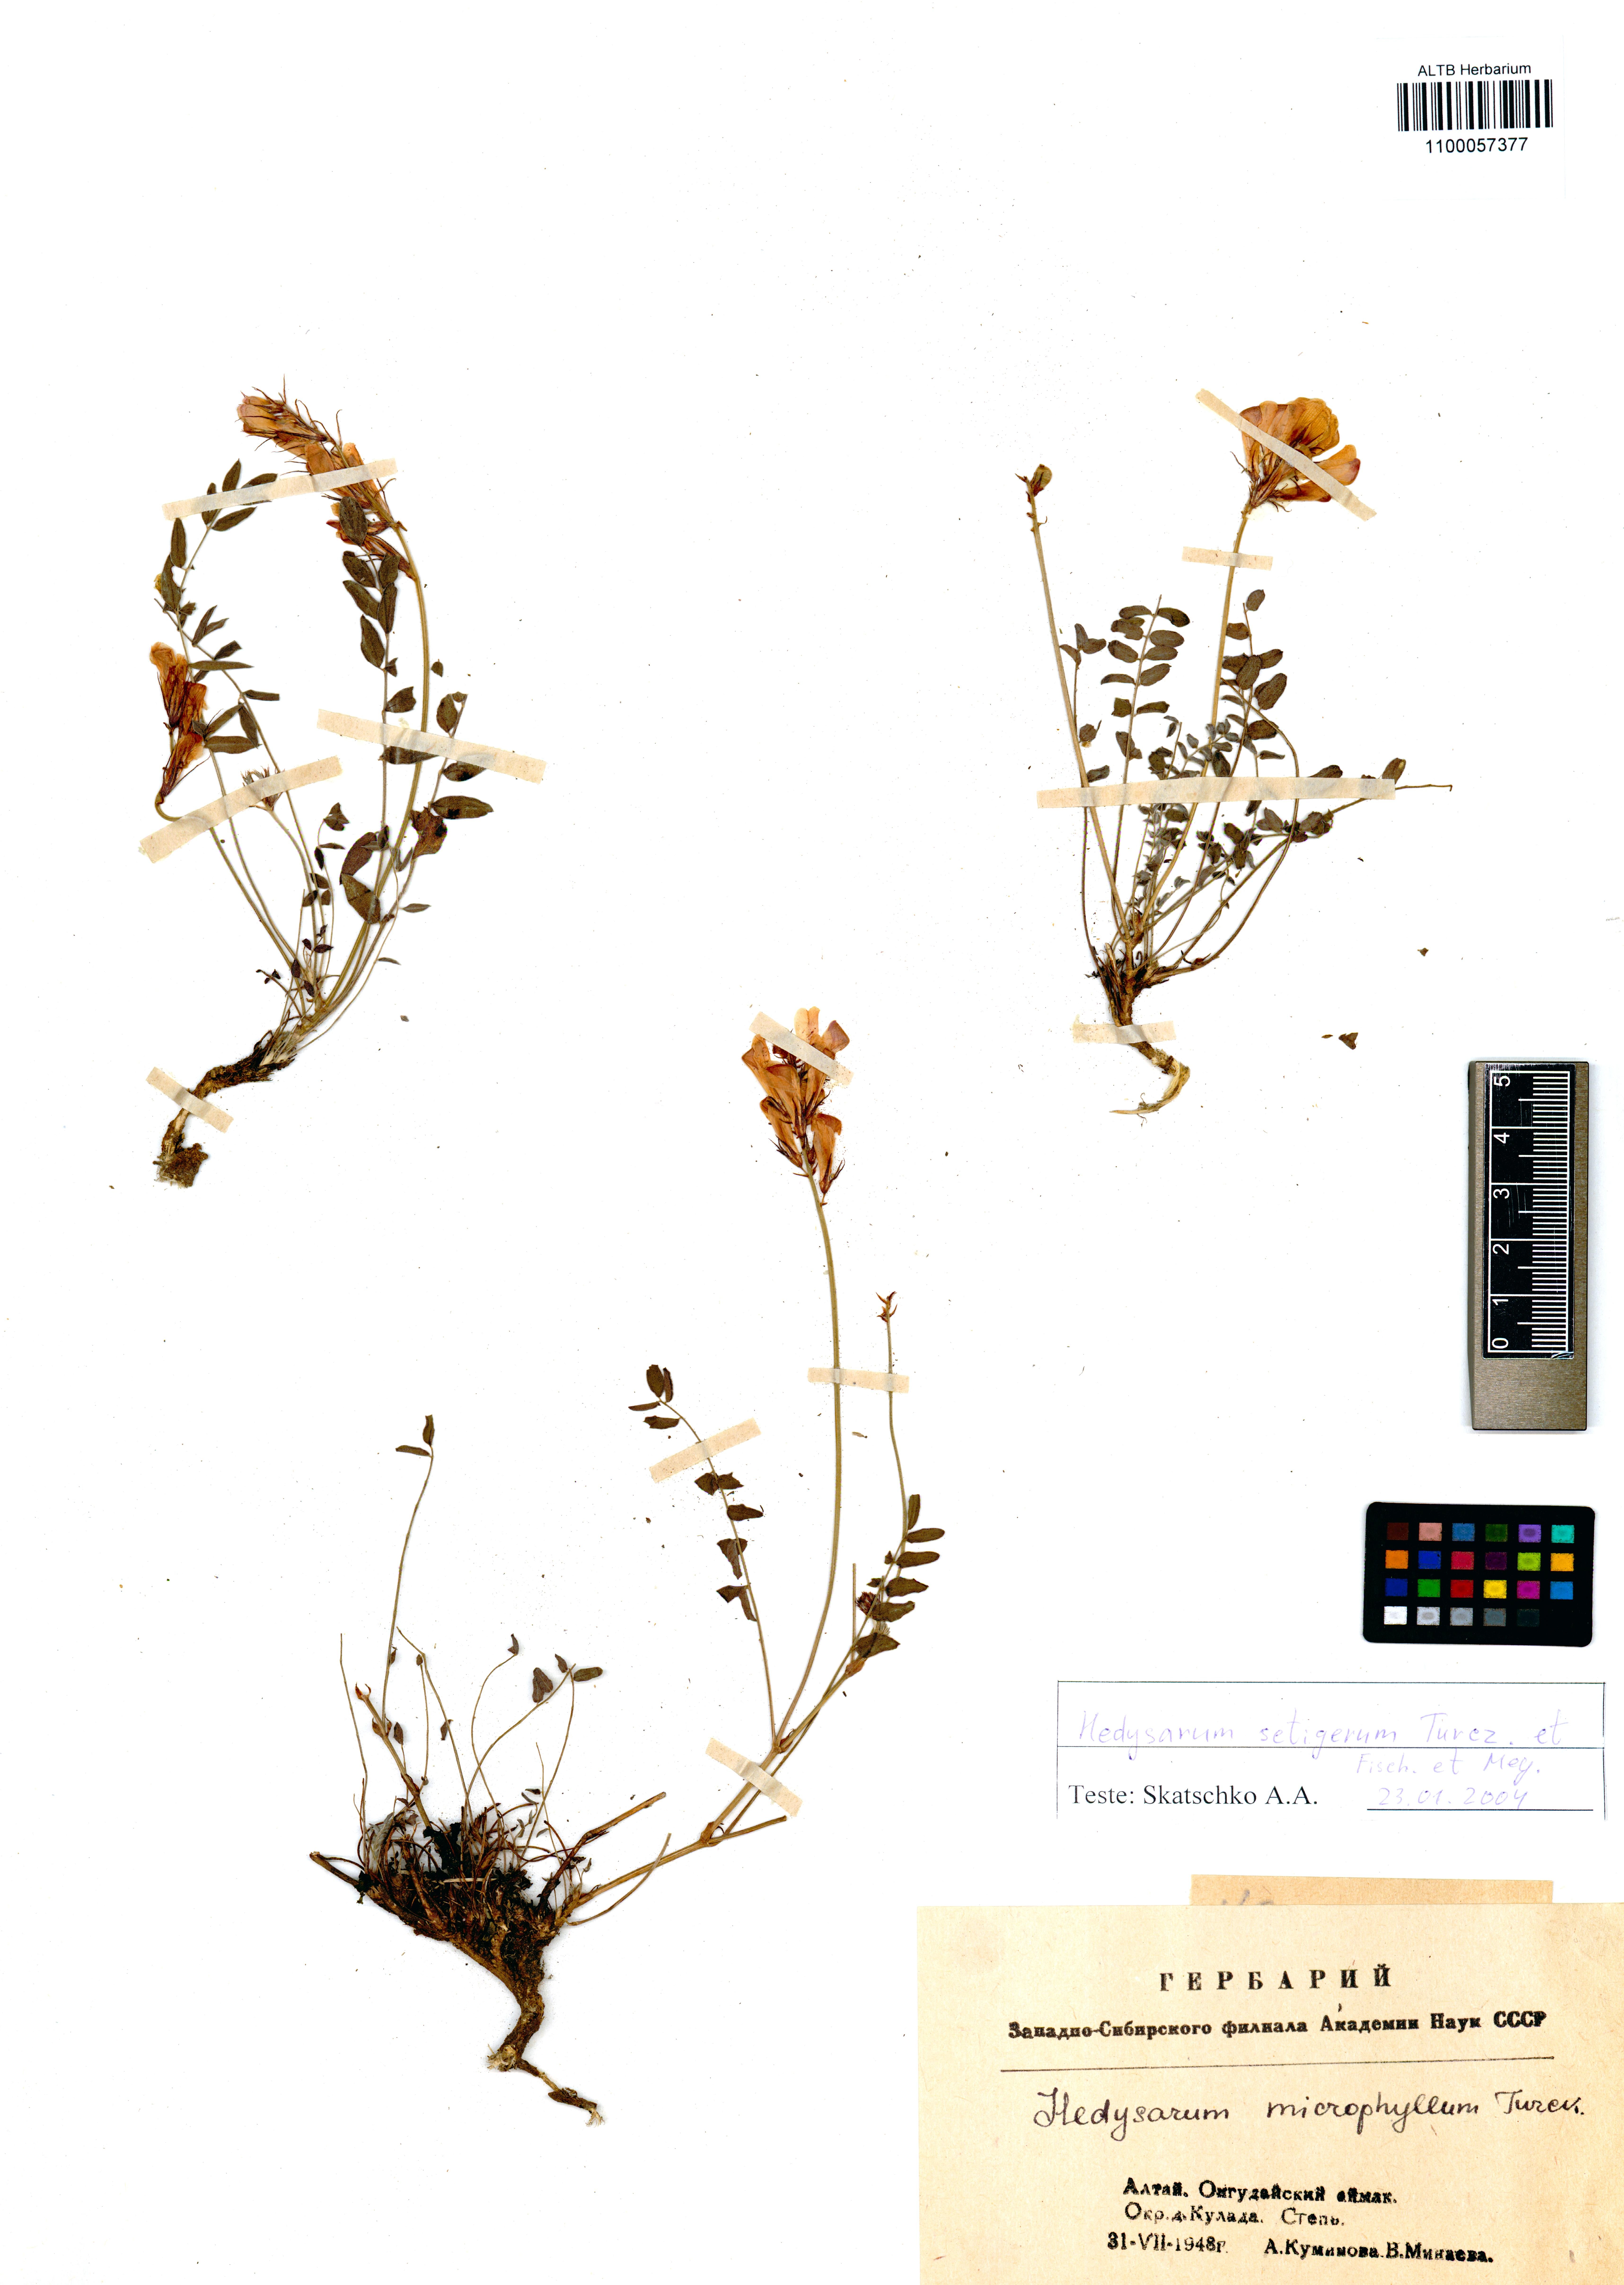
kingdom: Plantae
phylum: Tracheophyta
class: Magnoliopsida
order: Fabales
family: Fabaceae
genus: Hedysarum
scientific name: Hedysarum setigerum
